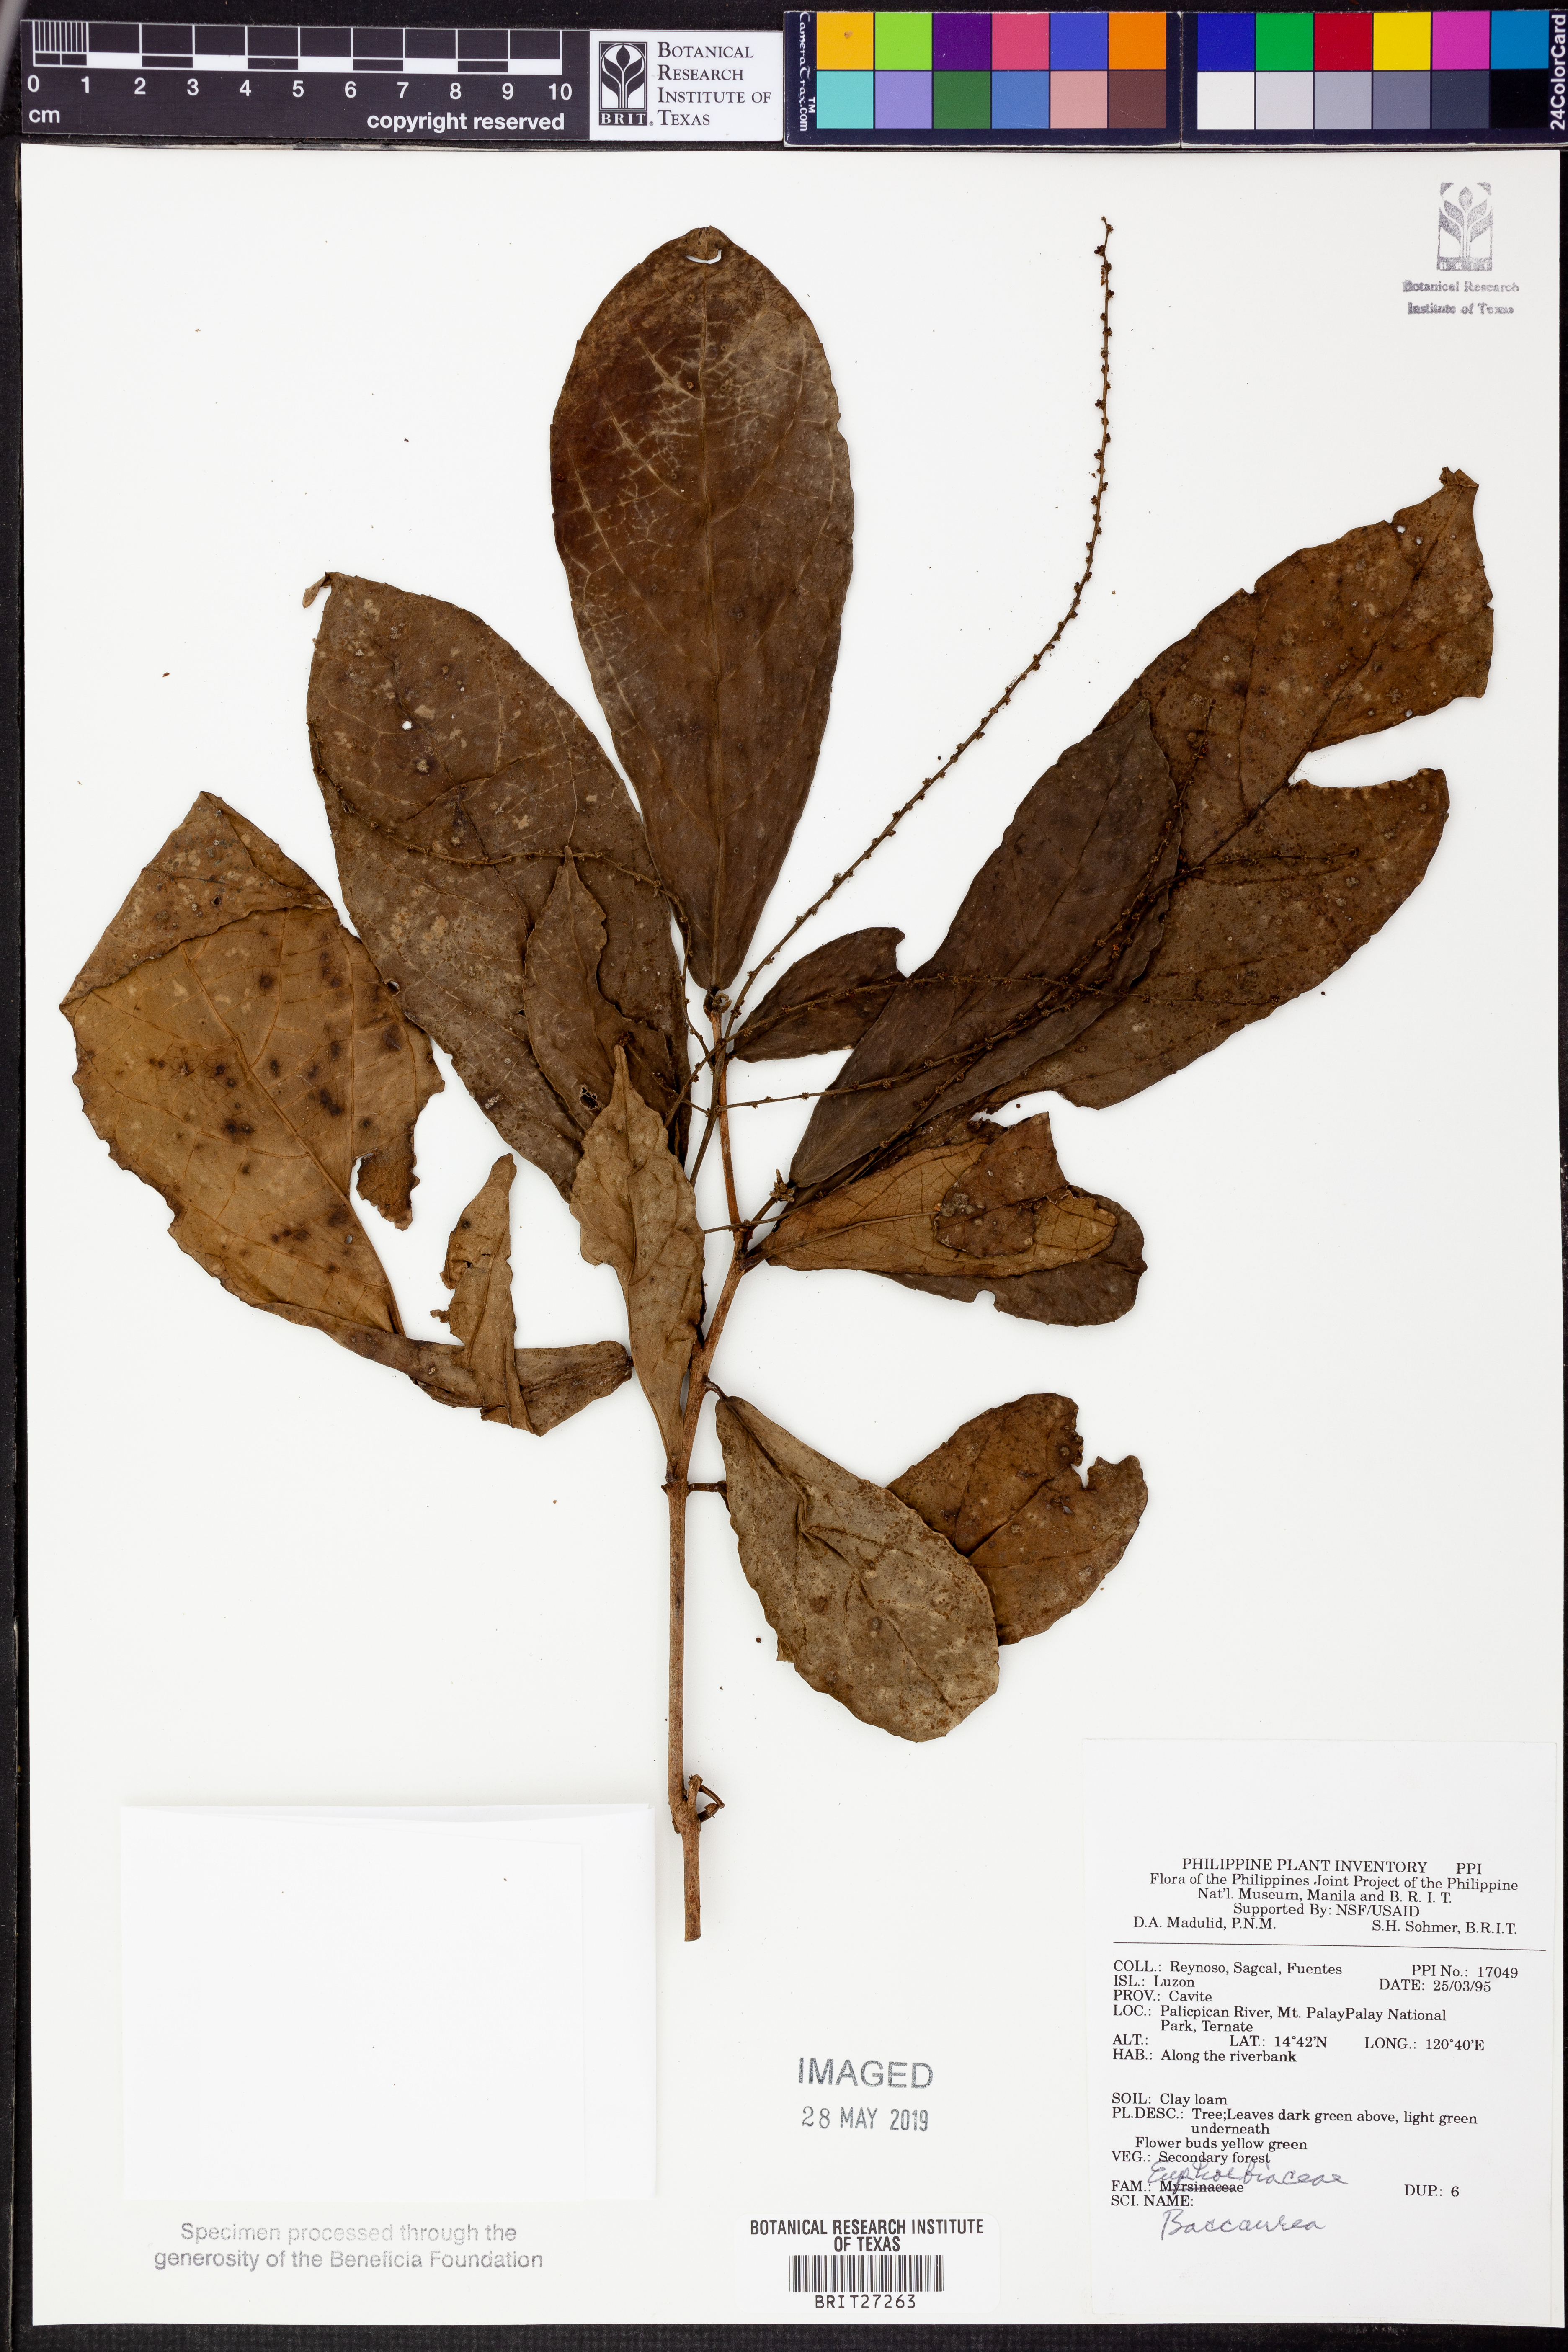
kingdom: Plantae
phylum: Tracheophyta
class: Magnoliopsida
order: Malpighiales
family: Phyllanthaceae
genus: Baccaurea
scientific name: Baccaurea
